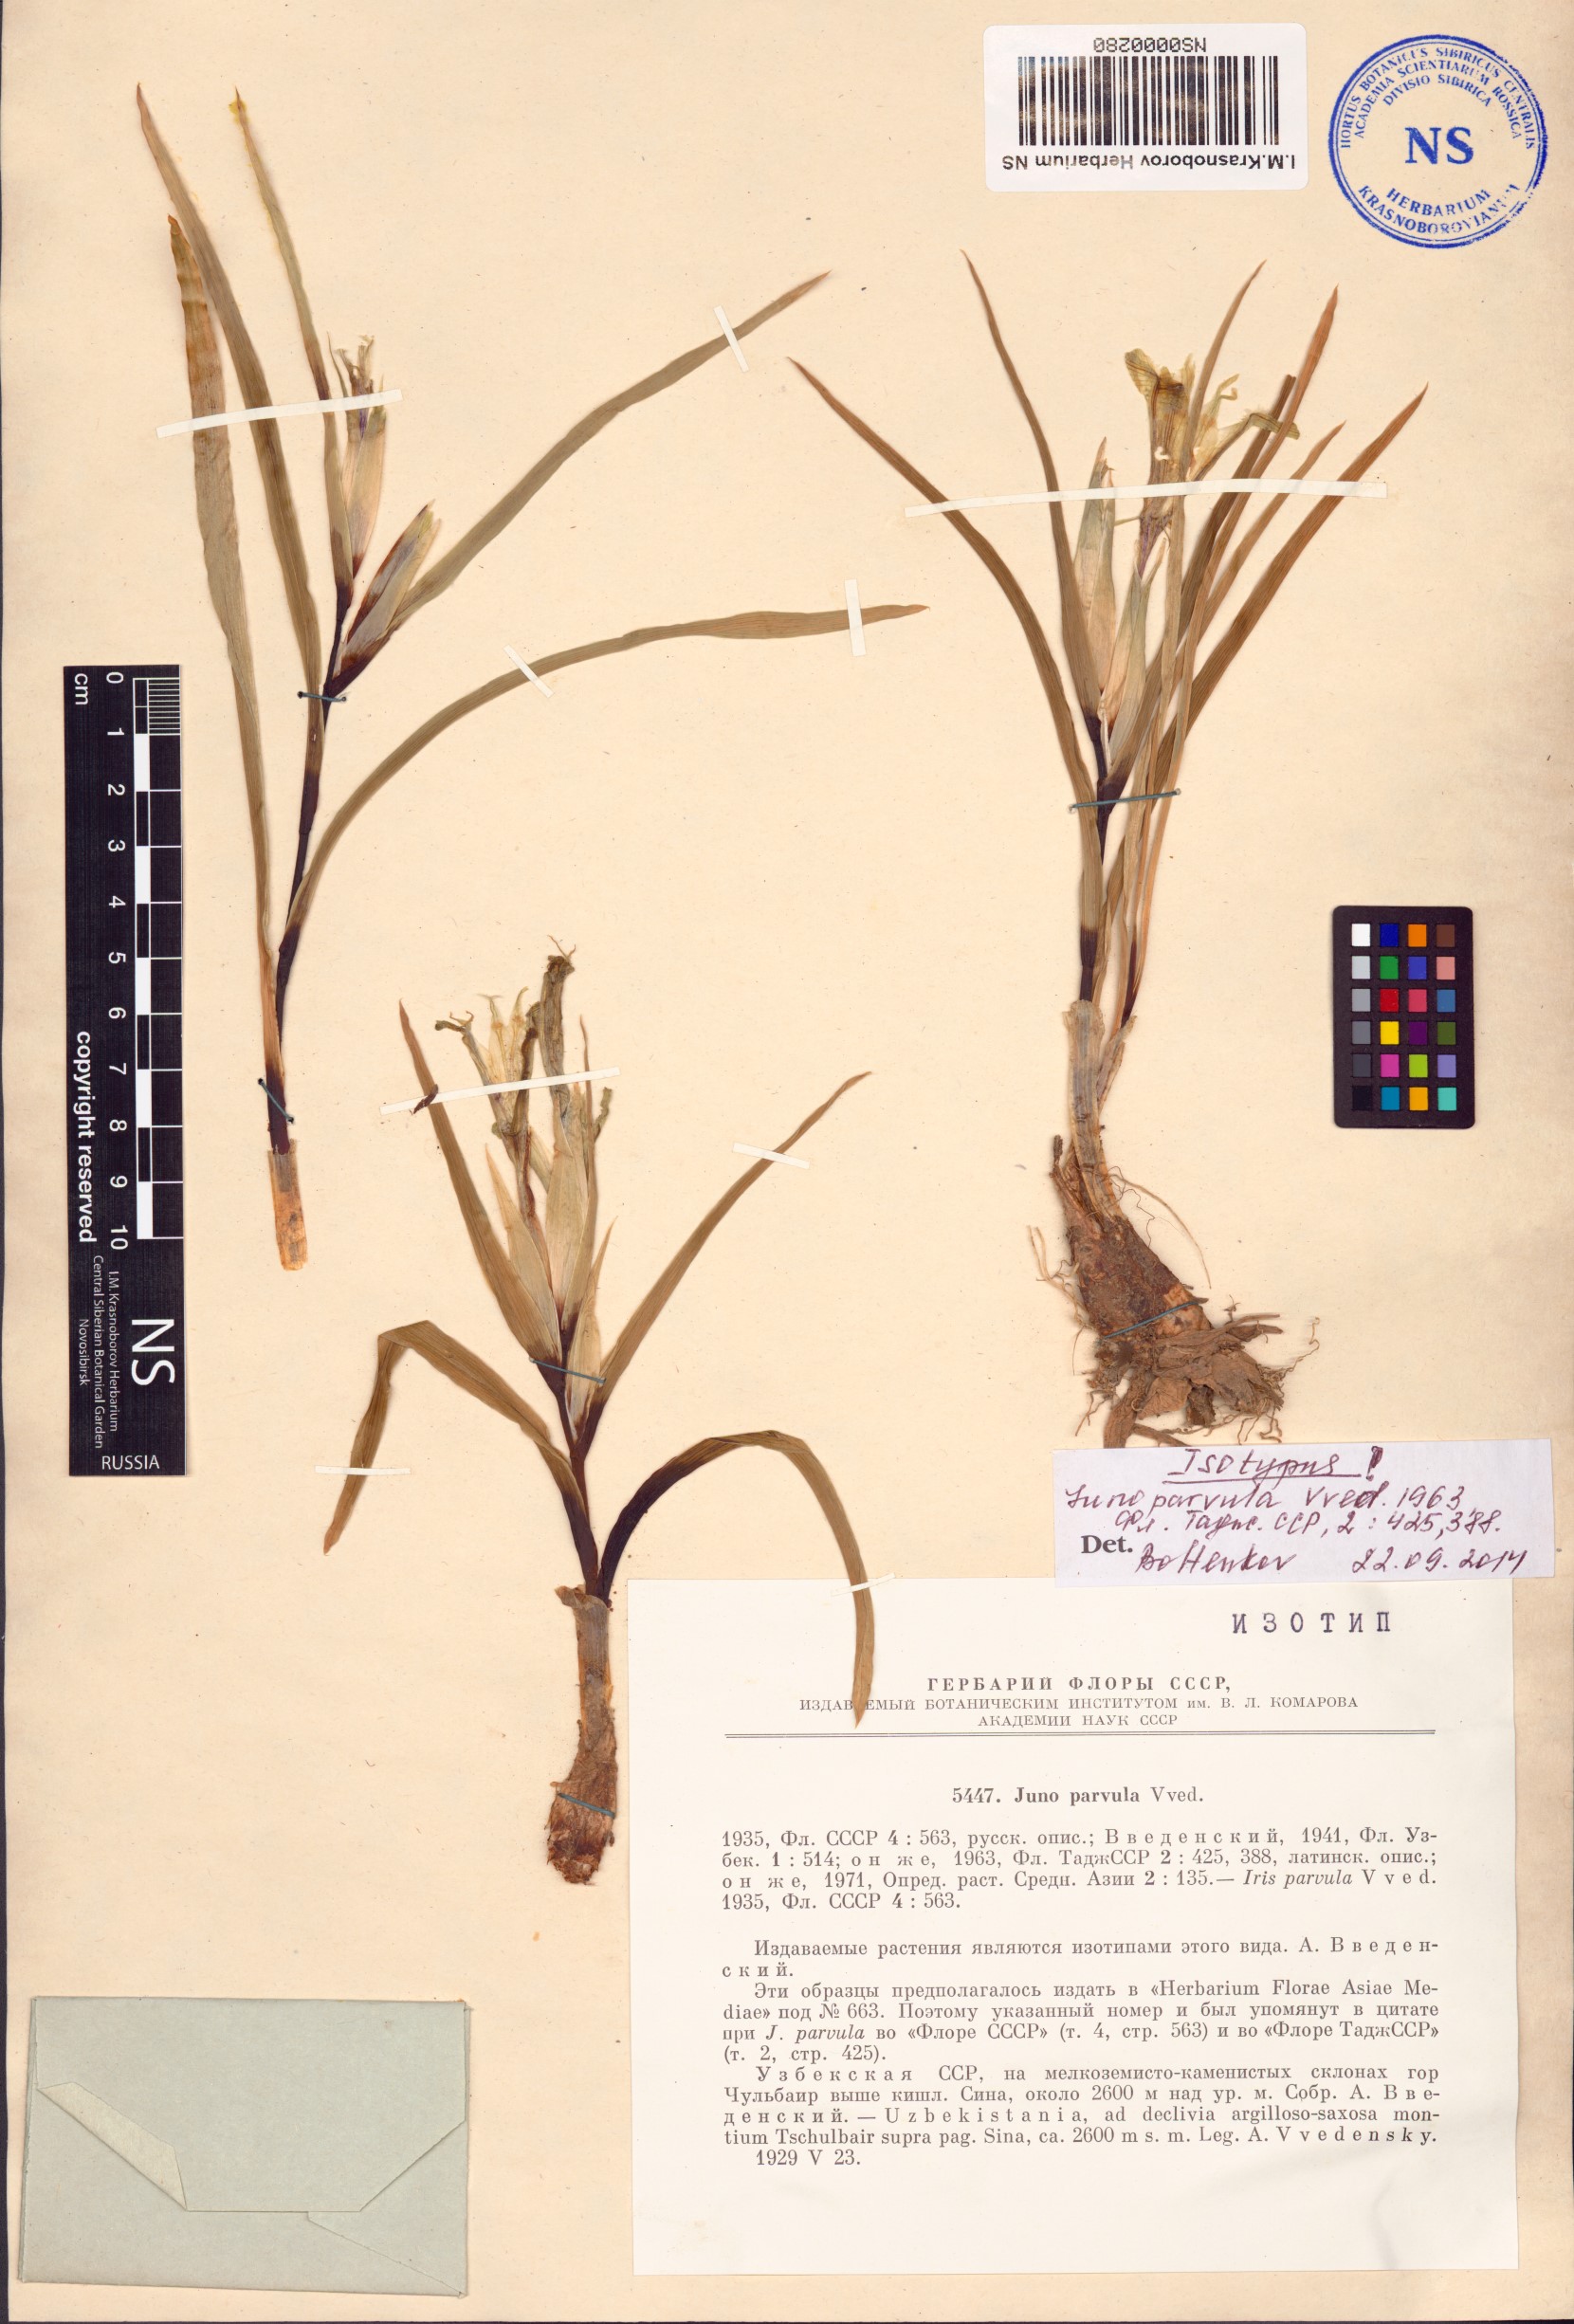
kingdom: Plantae
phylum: Tracheophyta
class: Liliopsida
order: Asparagales
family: Iridaceae
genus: Iris
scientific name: Iris parvula
